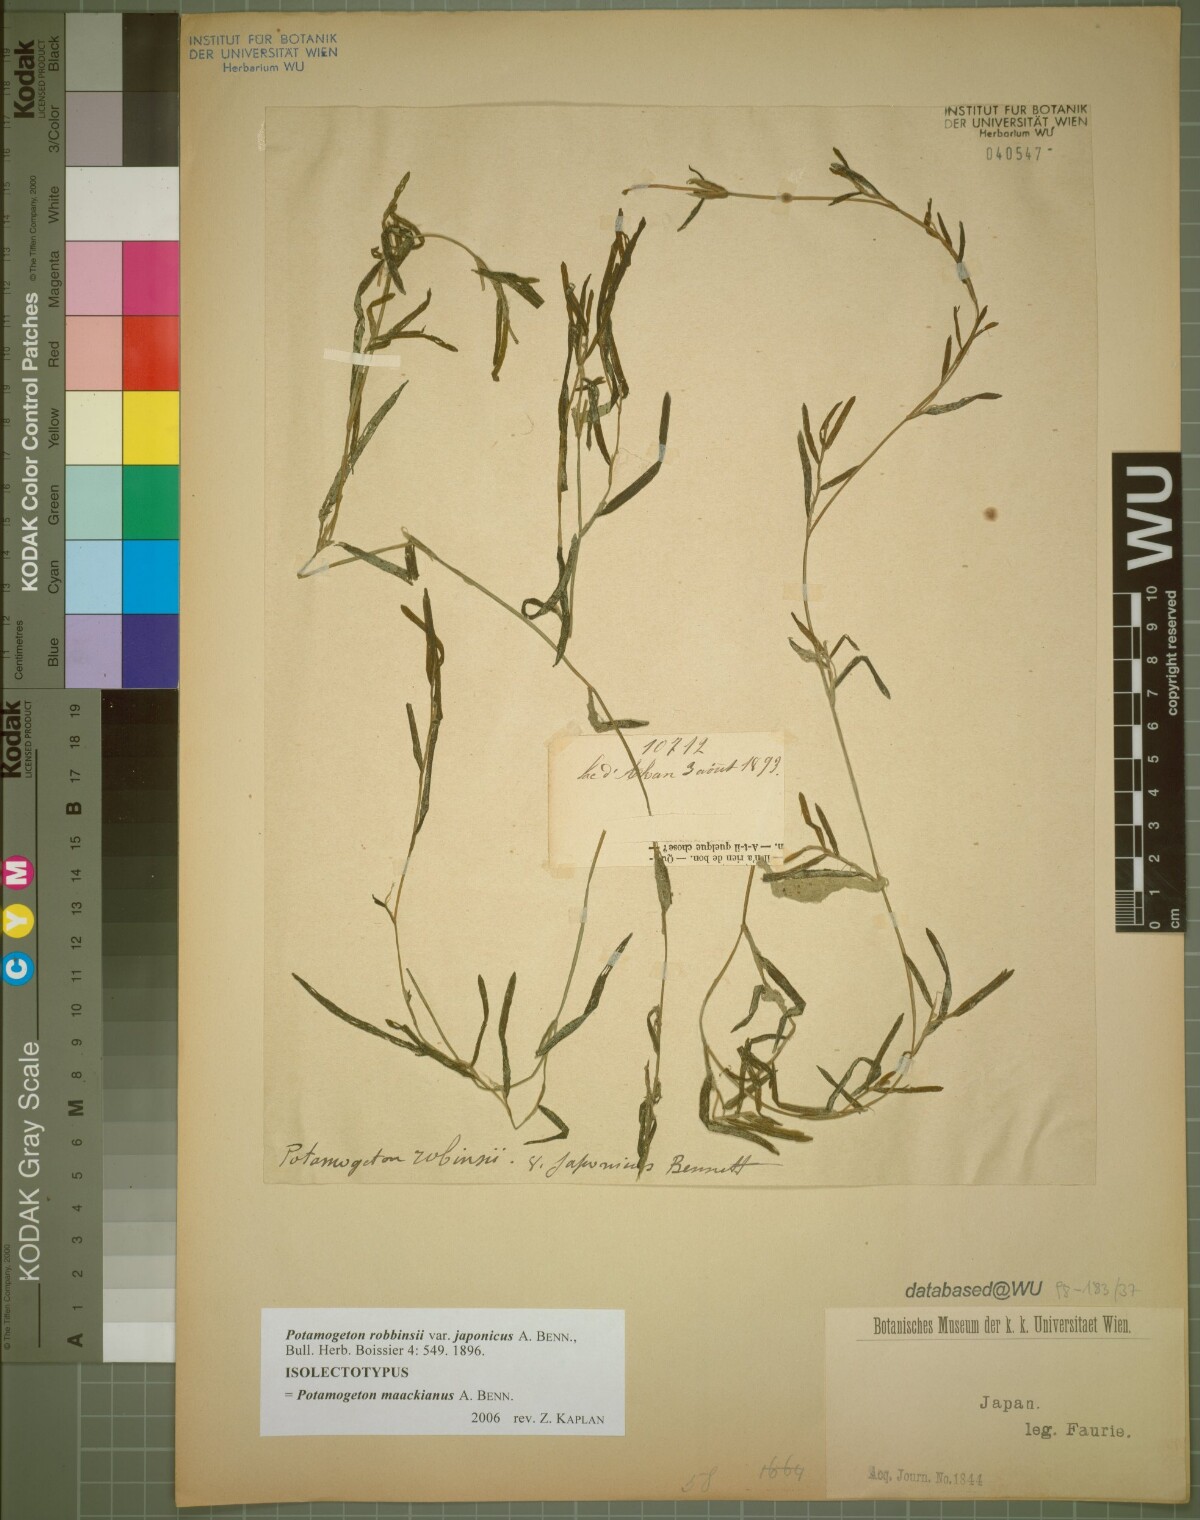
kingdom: Plantae
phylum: Tracheophyta
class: Liliopsida
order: Alismatales
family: Potamogetonaceae
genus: Potamogeton
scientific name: Potamogeton maackianus
